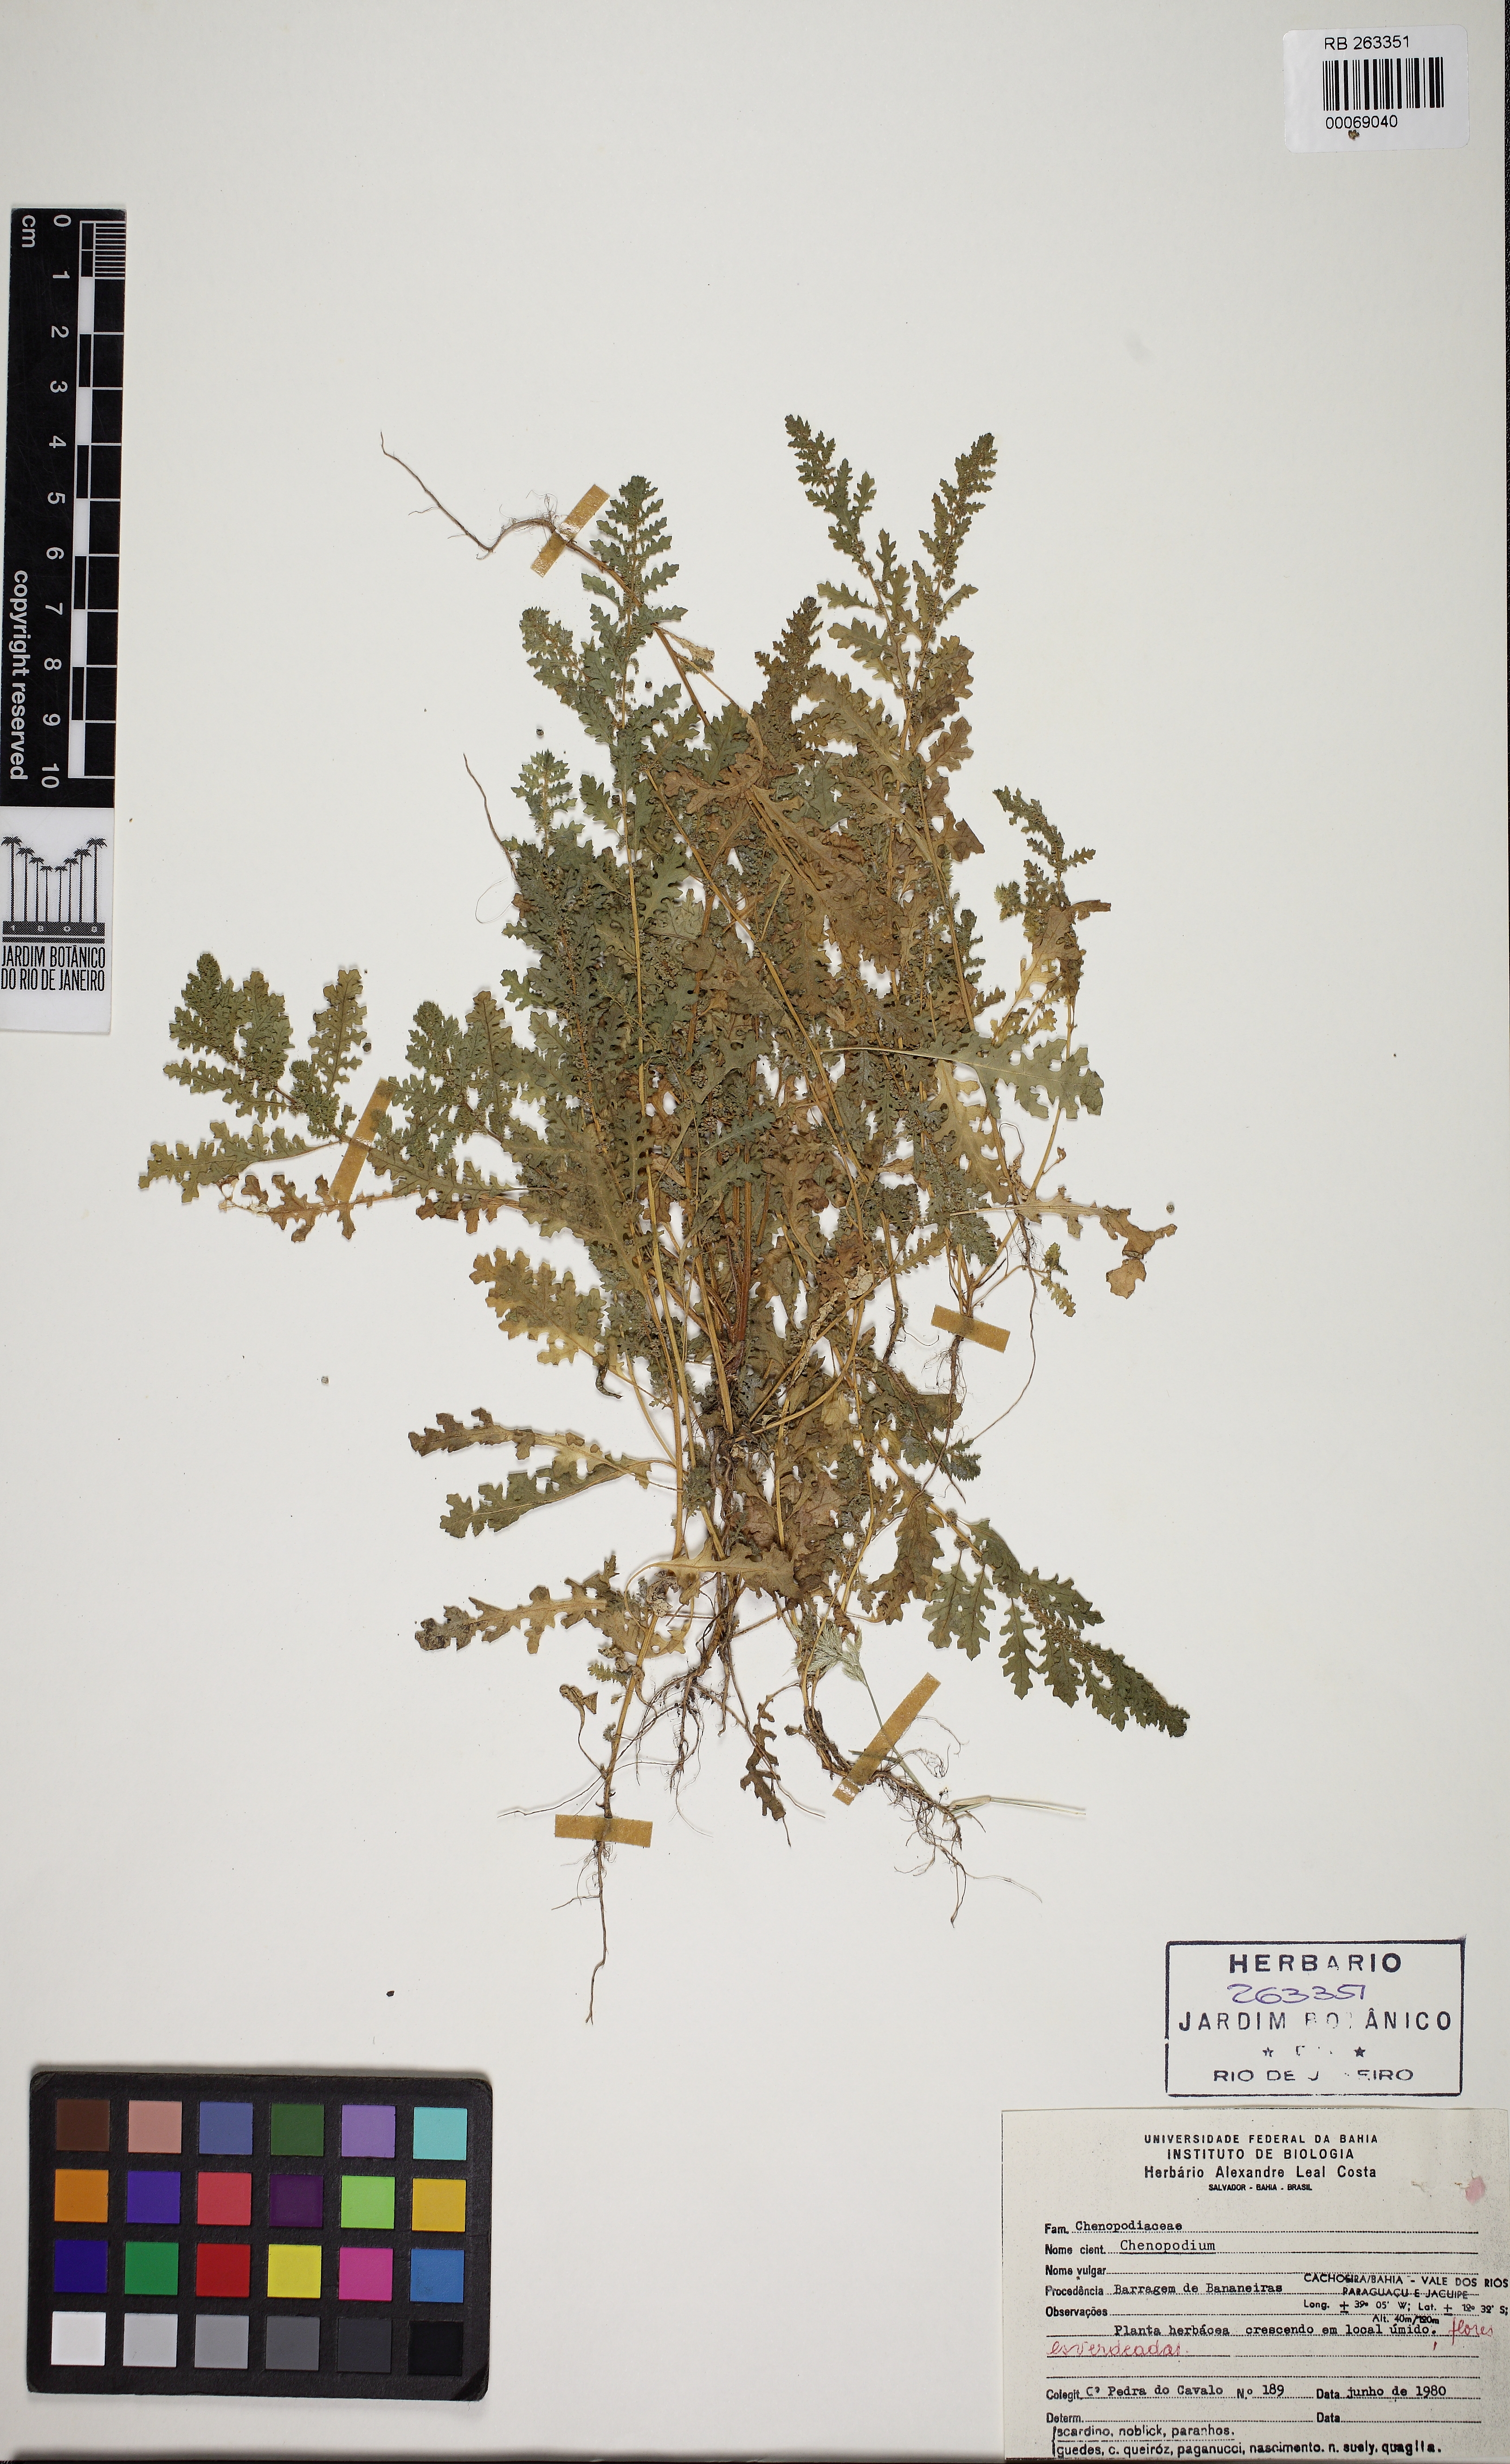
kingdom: Plantae
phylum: Tracheophyta
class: Magnoliopsida
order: Caryophyllales
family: Amaranthaceae
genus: Chenopodium
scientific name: Chenopodium
